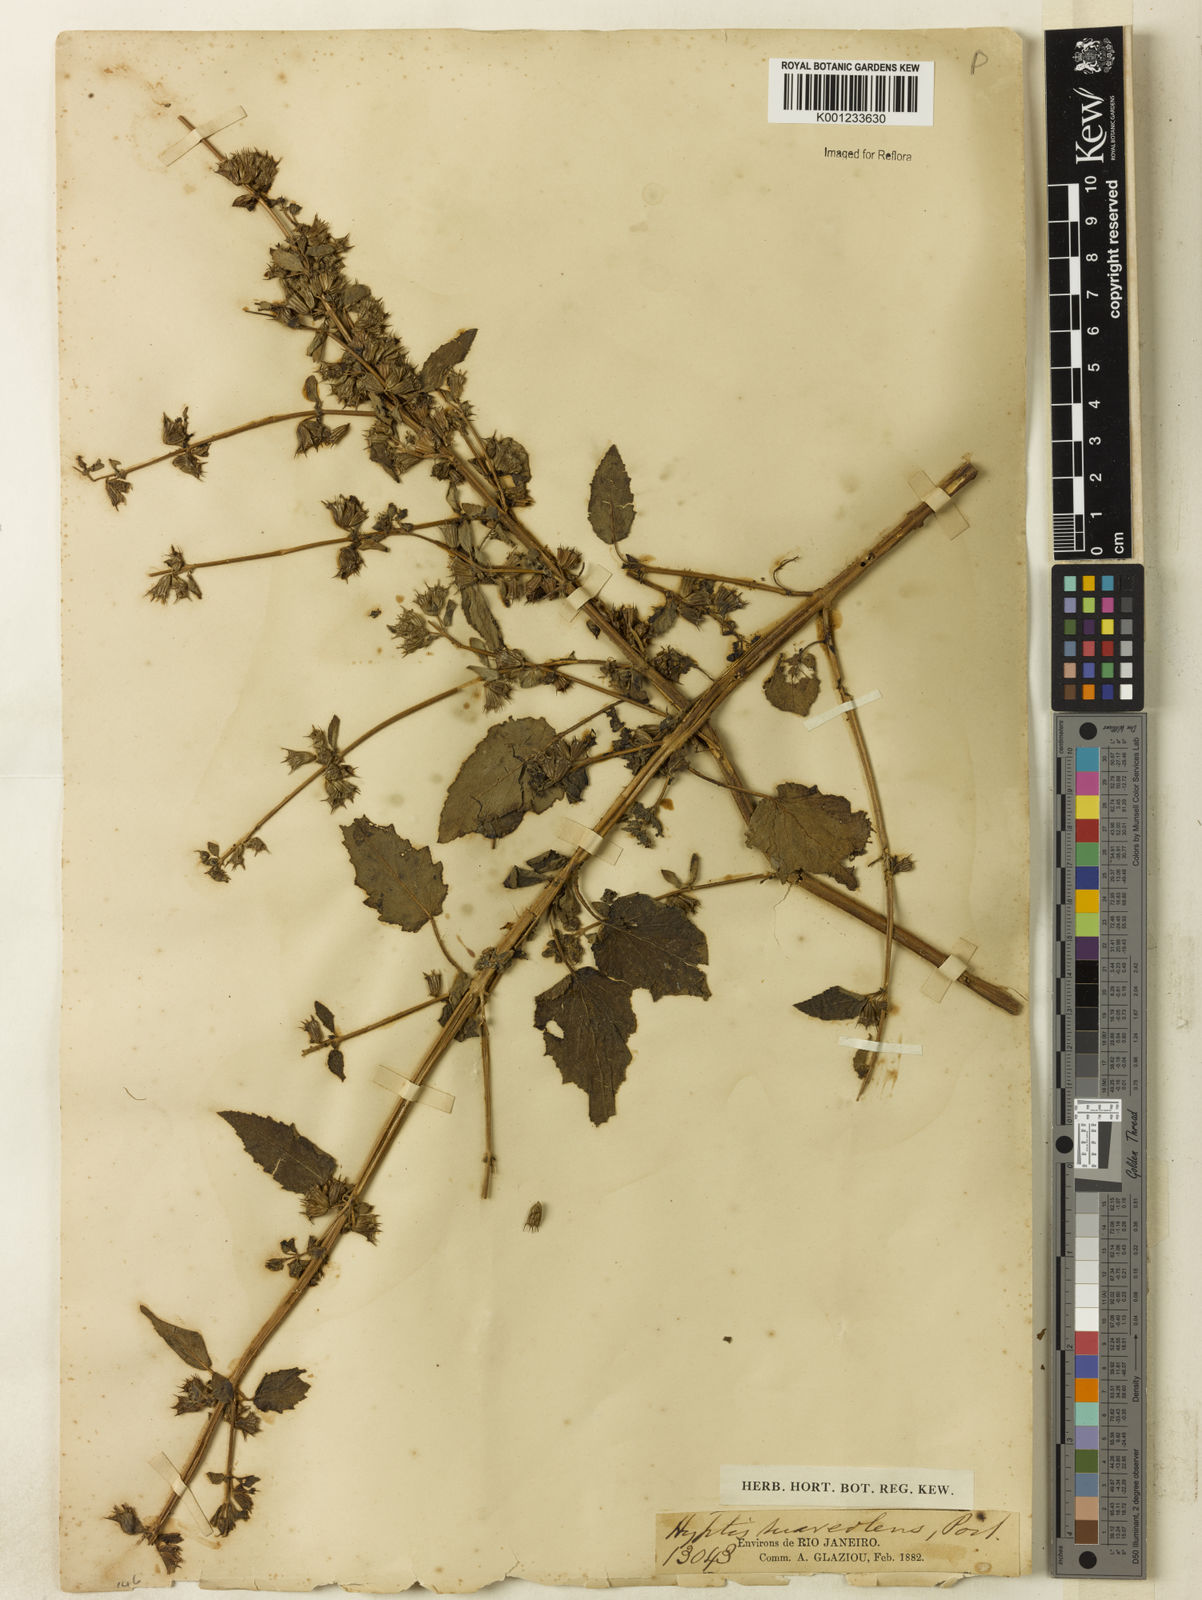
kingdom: Plantae
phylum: Tracheophyta
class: Magnoliopsida
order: Lamiales
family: Lamiaceae
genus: Mesosphaerum
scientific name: Mesosphaerum suaveolens
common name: Pignut
